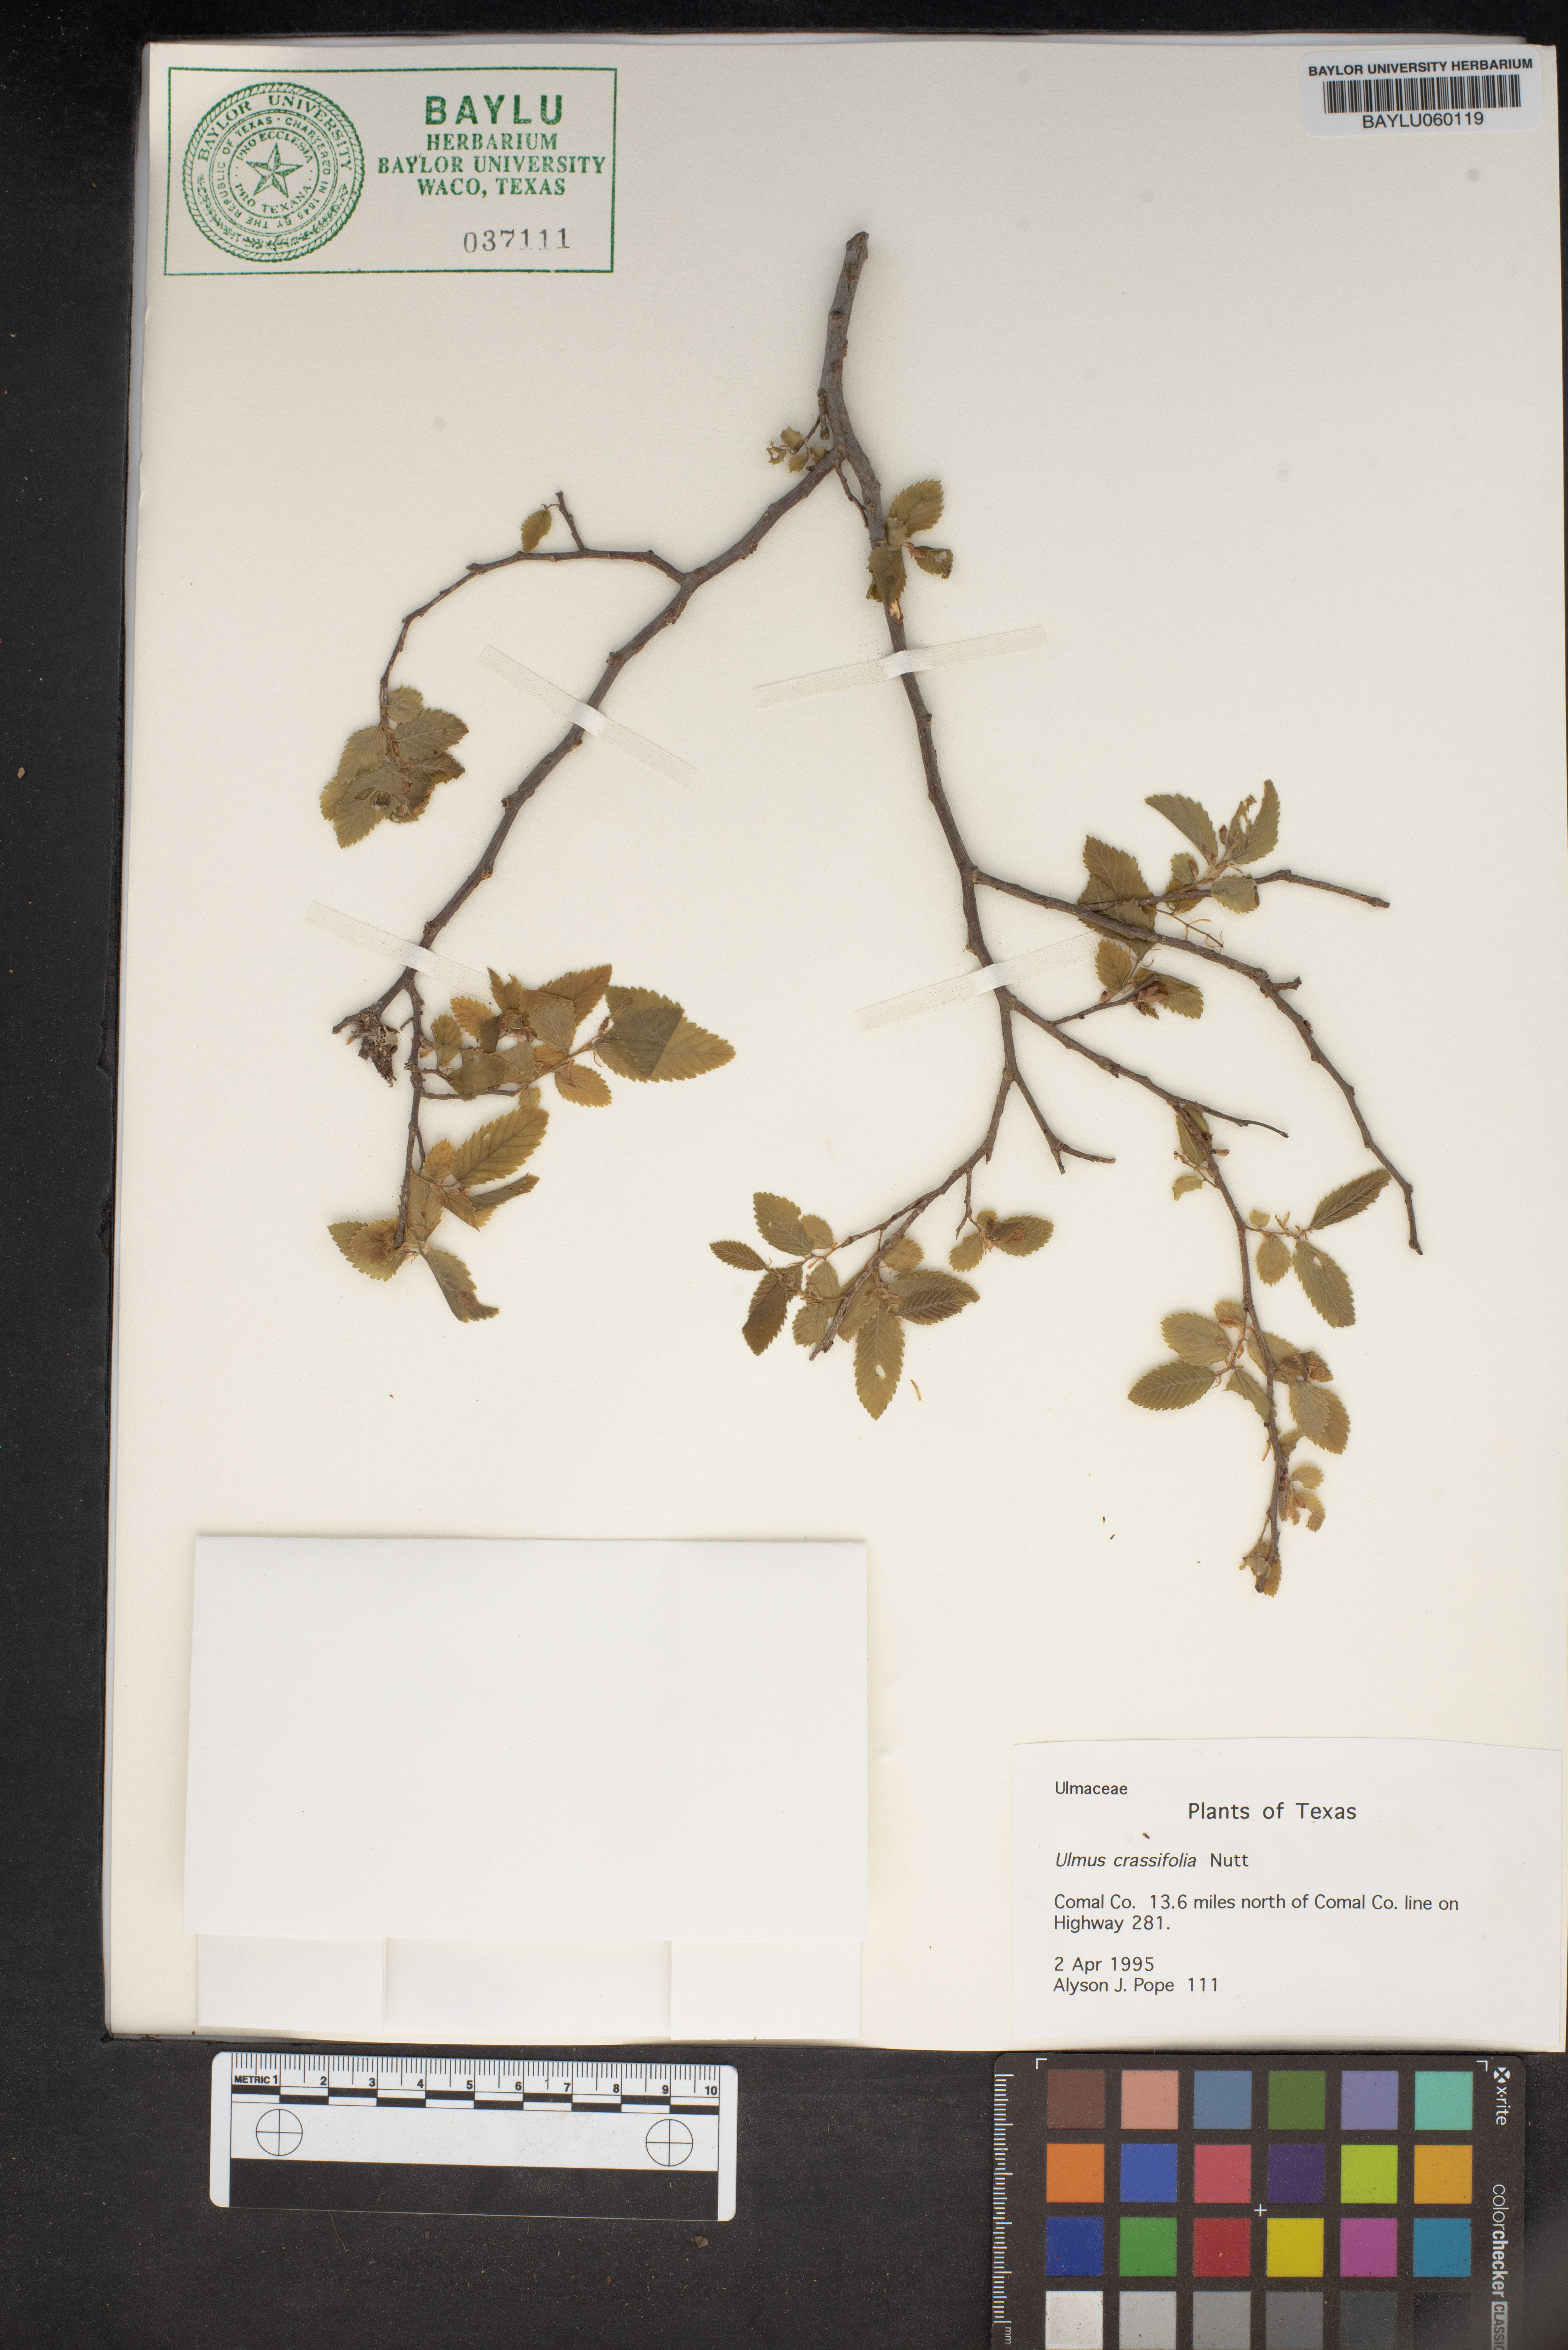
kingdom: Plantae
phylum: Tracheophyta
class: Magnoliopsida
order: Rosales
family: Ulmaceae
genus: Ulmus
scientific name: Ulmus crassifolia
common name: Basket elm
